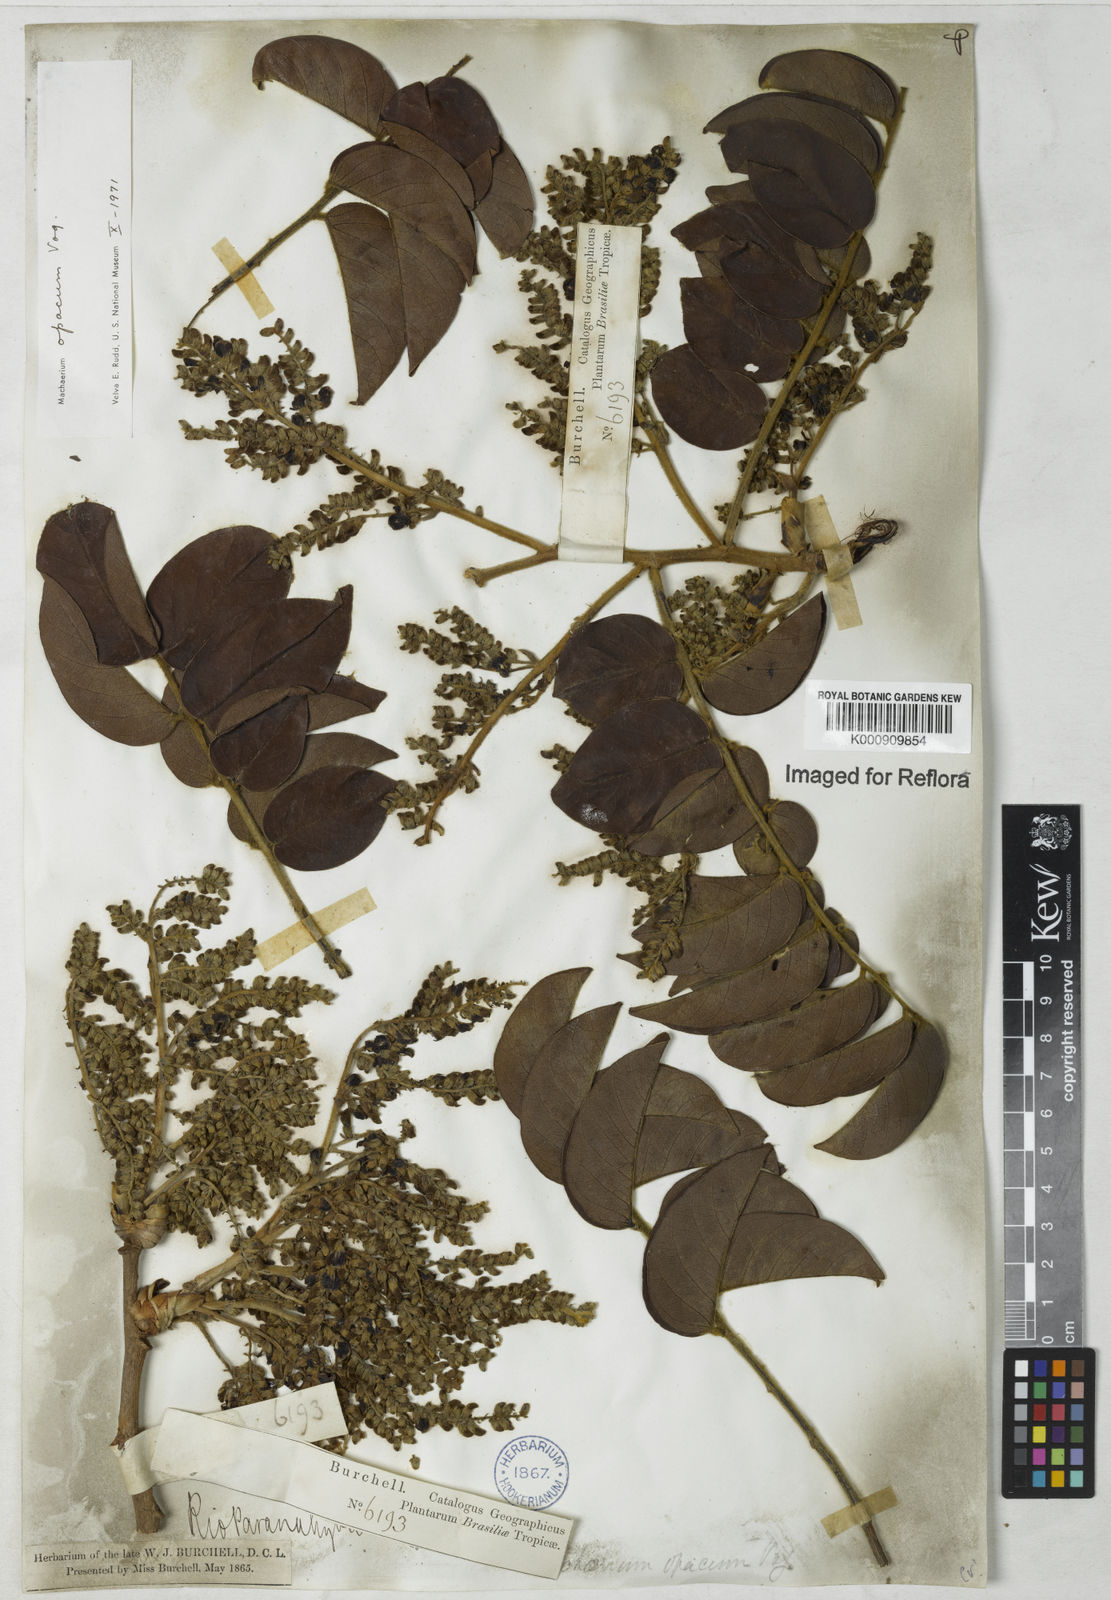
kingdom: Plantae
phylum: Tracheophyta
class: Magnoliopsida
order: Fabales
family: Fabaceae
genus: Machaerium
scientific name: Machaerium opacum
